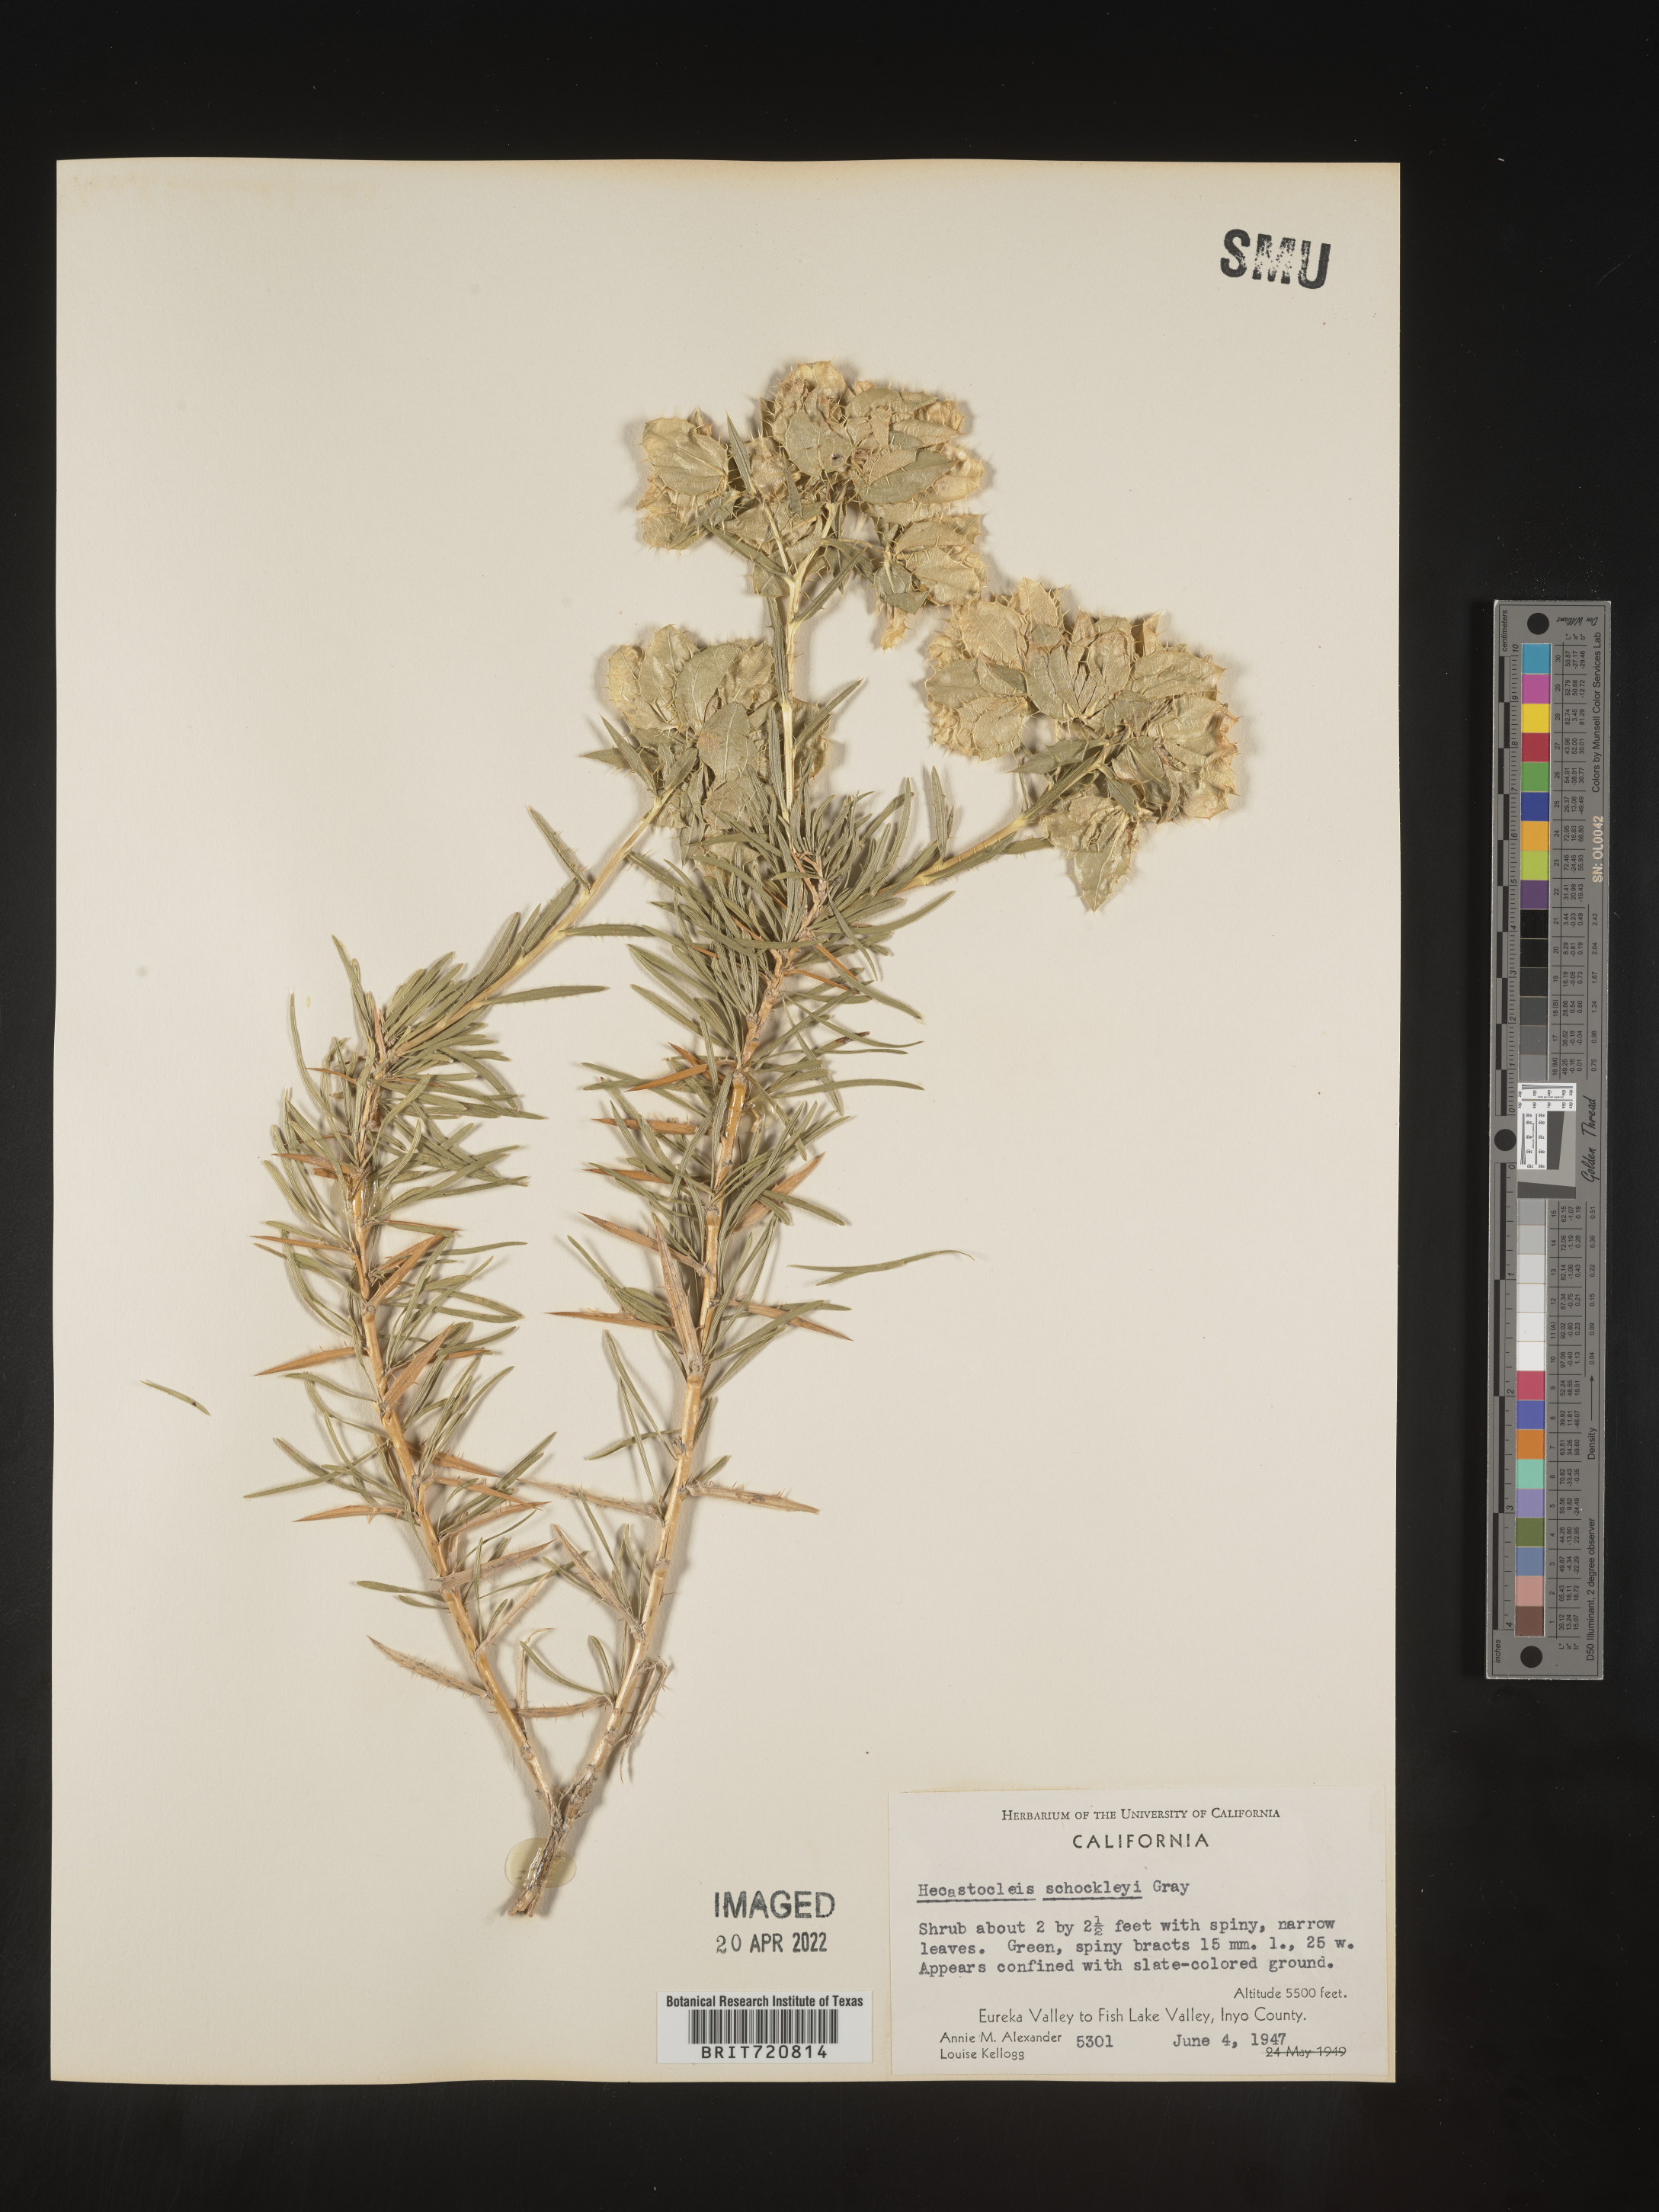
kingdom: Plantae
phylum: Tracheophyta
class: Magnoliopsida
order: Asterales
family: Asteraceae
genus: Hecastocleis
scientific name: Hecastocleis
